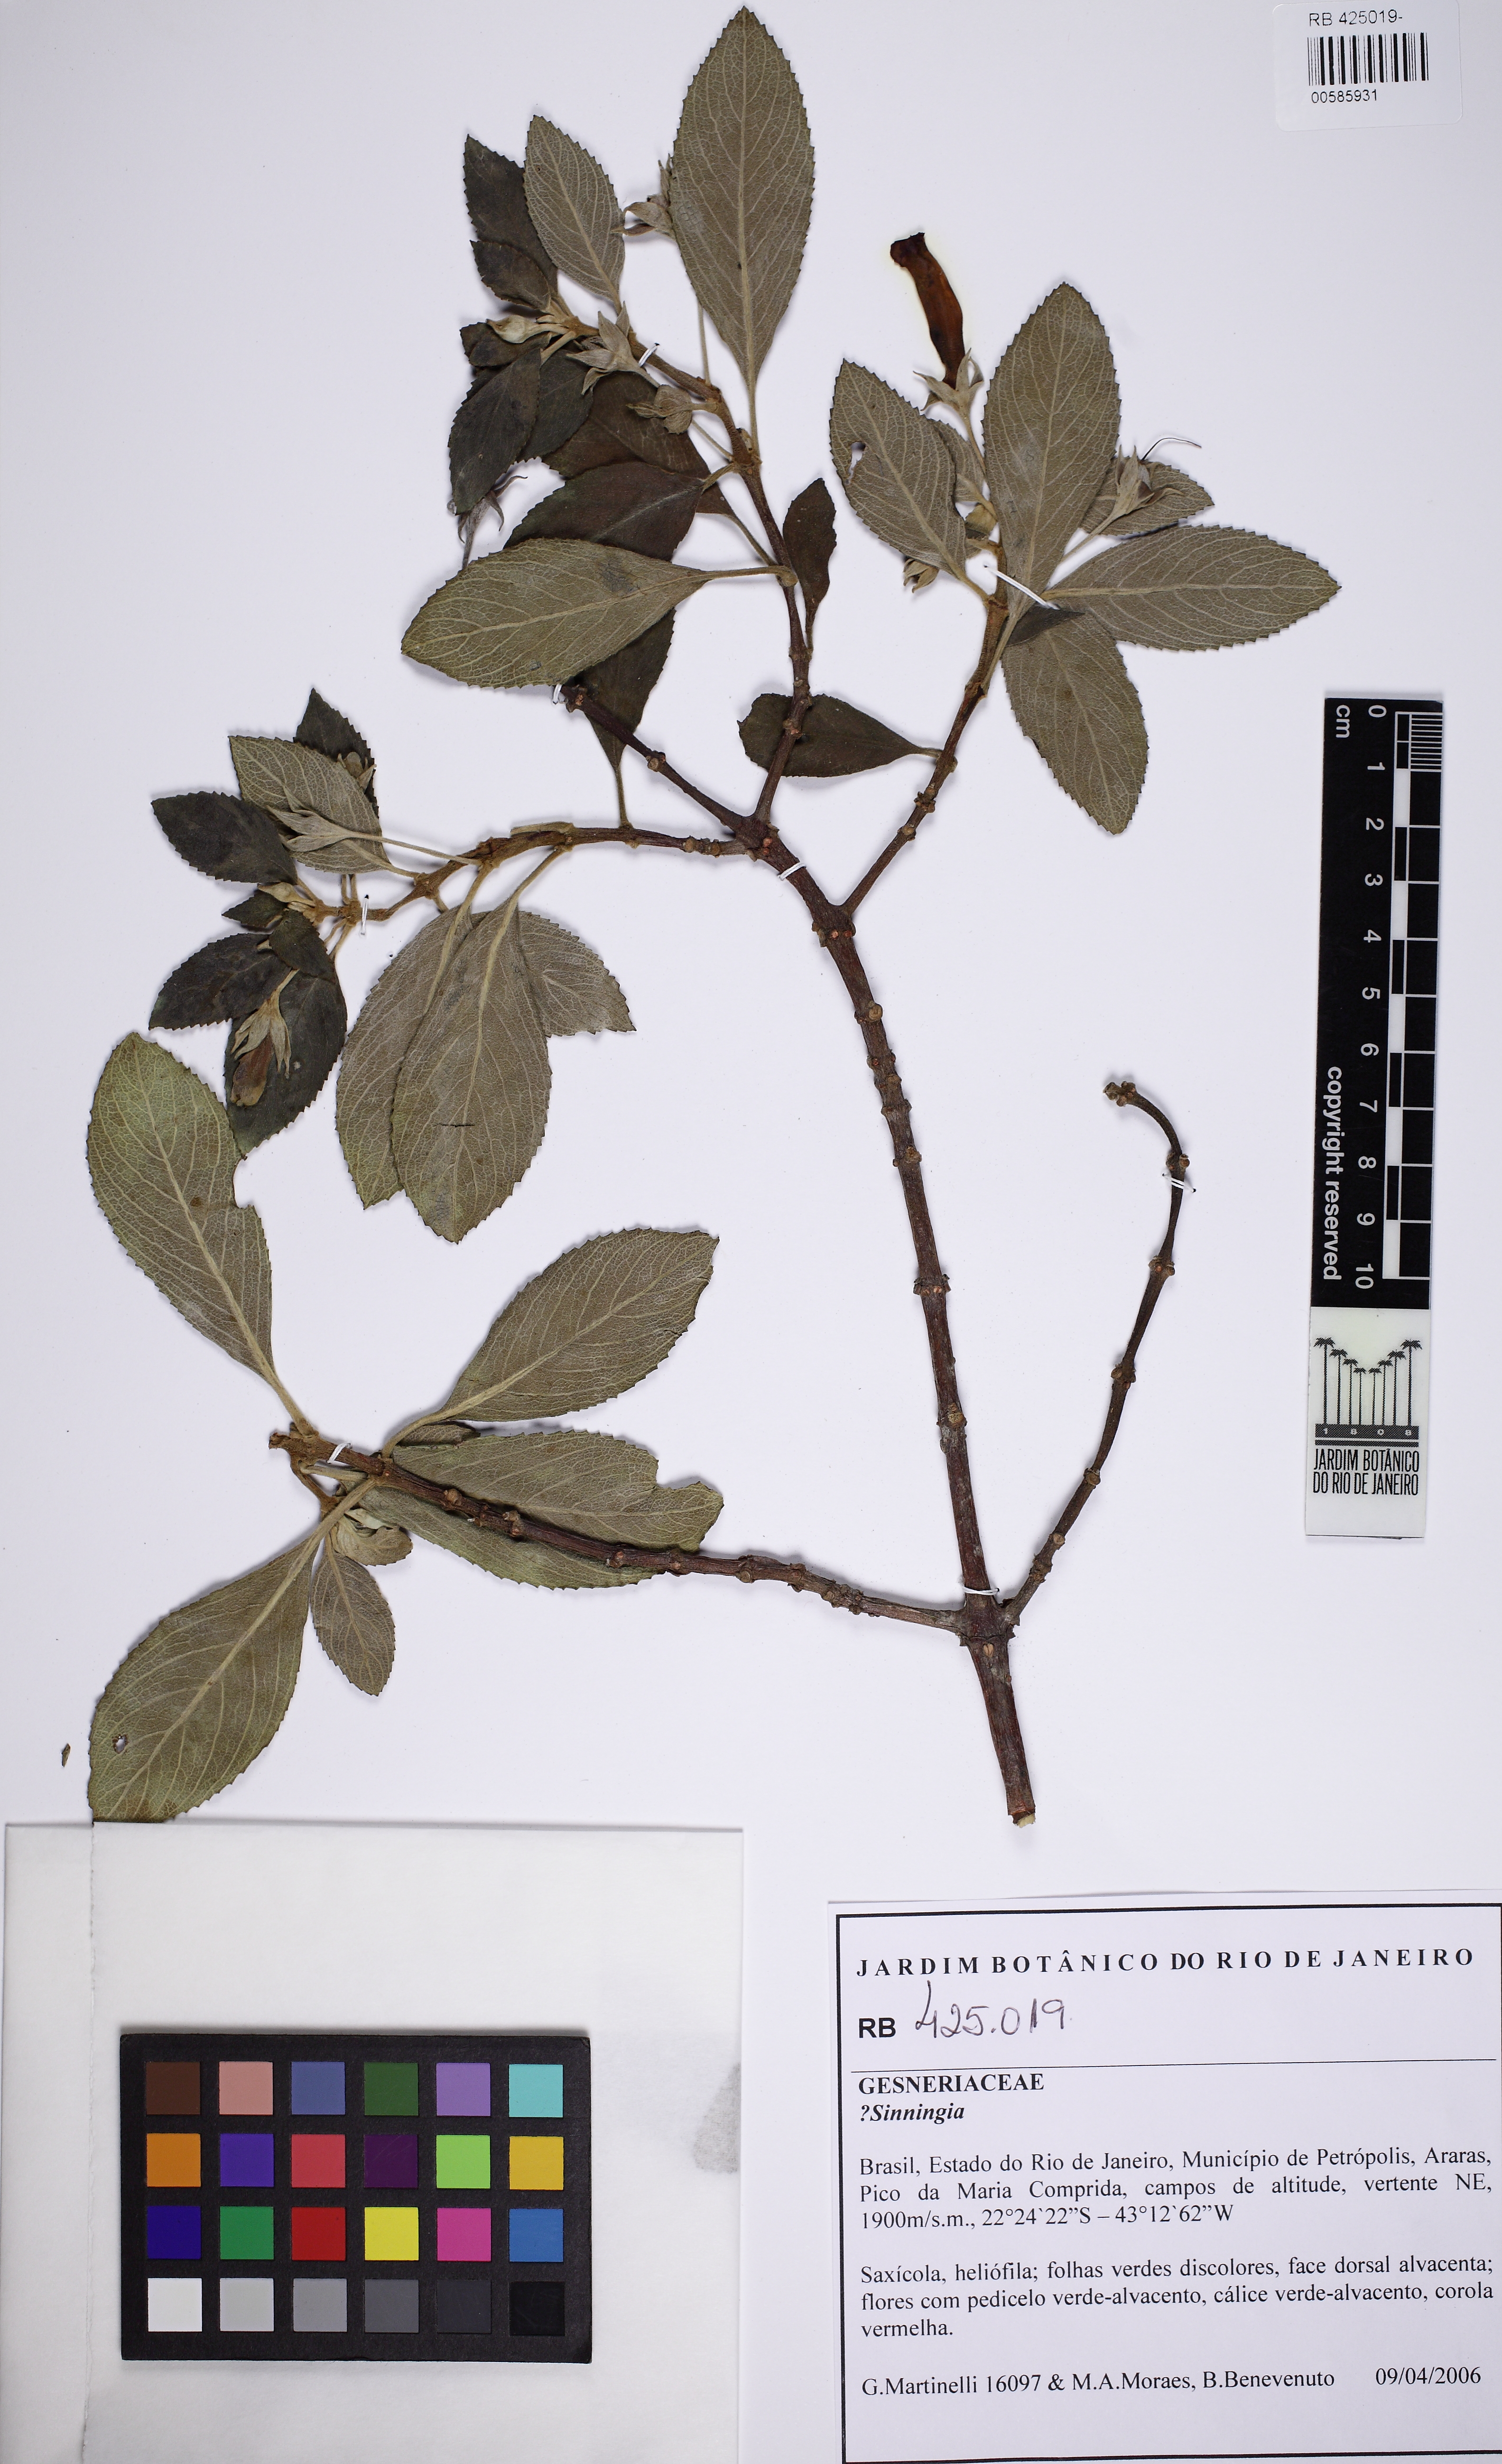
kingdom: Plantae
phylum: Tracheophyta
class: Magnoliopsida
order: Lamiales
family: Gesneriaceae
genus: Vanhouttea
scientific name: Vanhouttea
